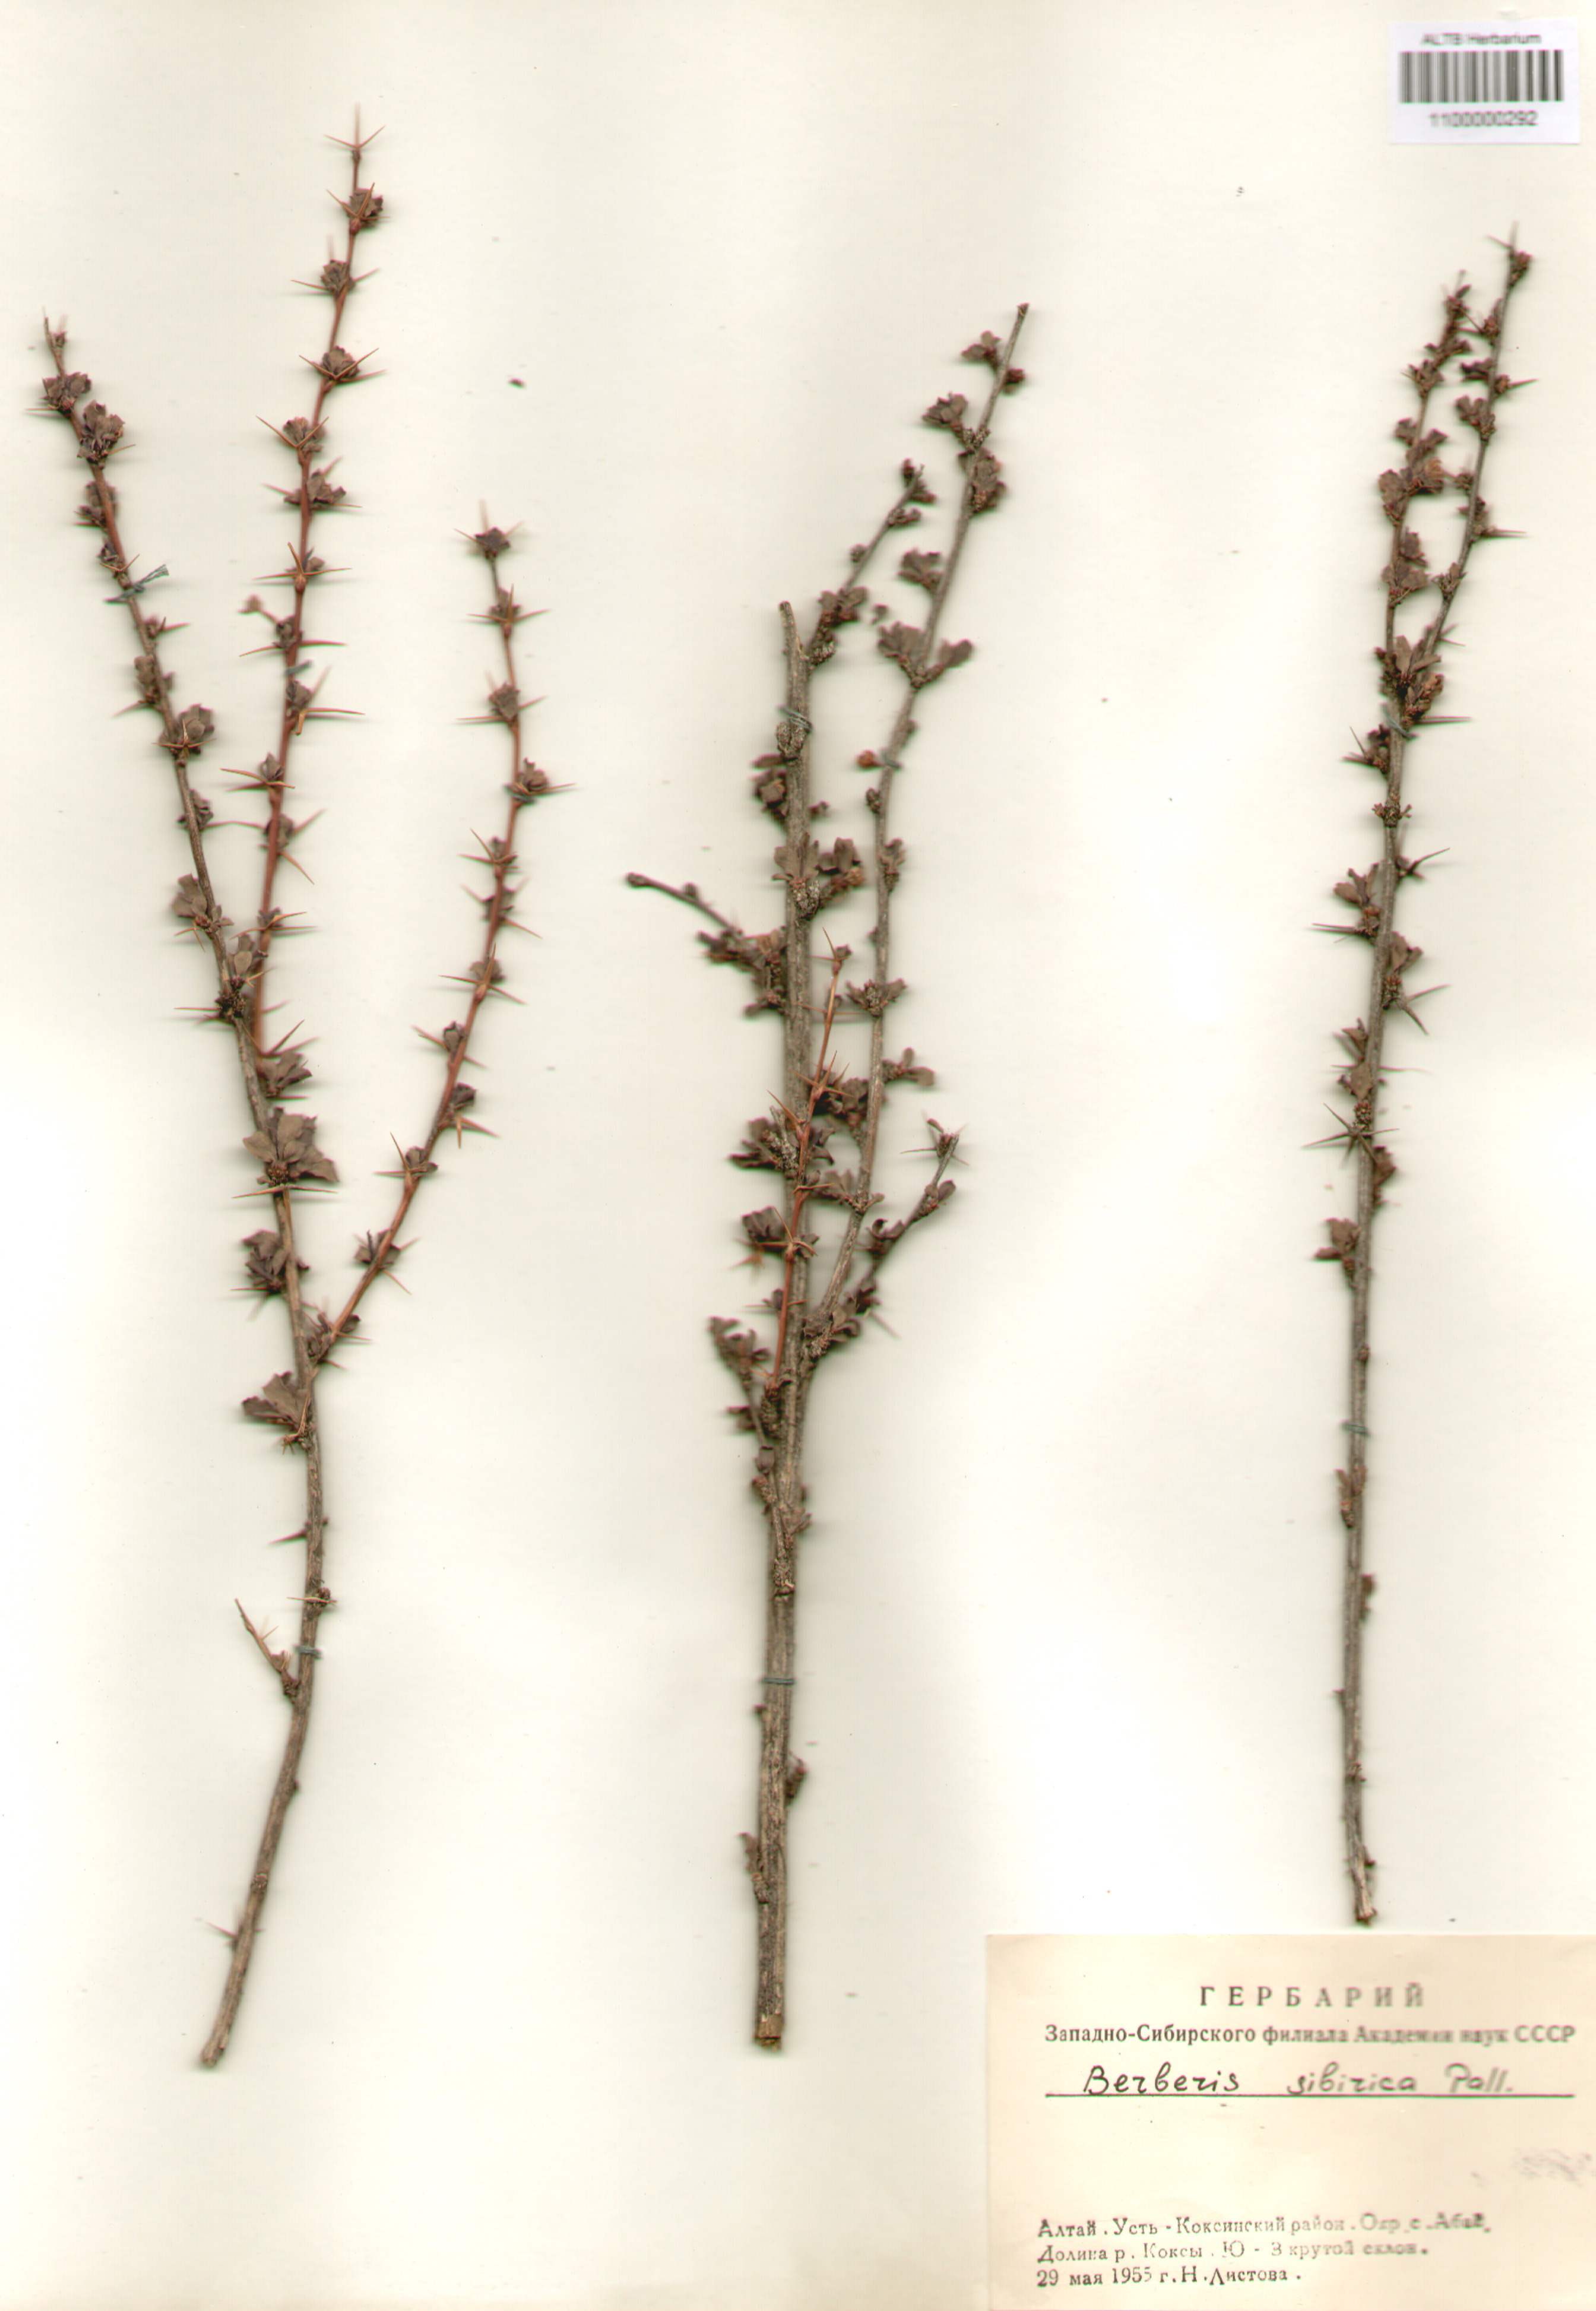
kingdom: Plantae
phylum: Tracheophyta
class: Magnoliopsida
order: Ranunculales
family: Berberidaceae
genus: Berberis
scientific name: Berberis sibirica
